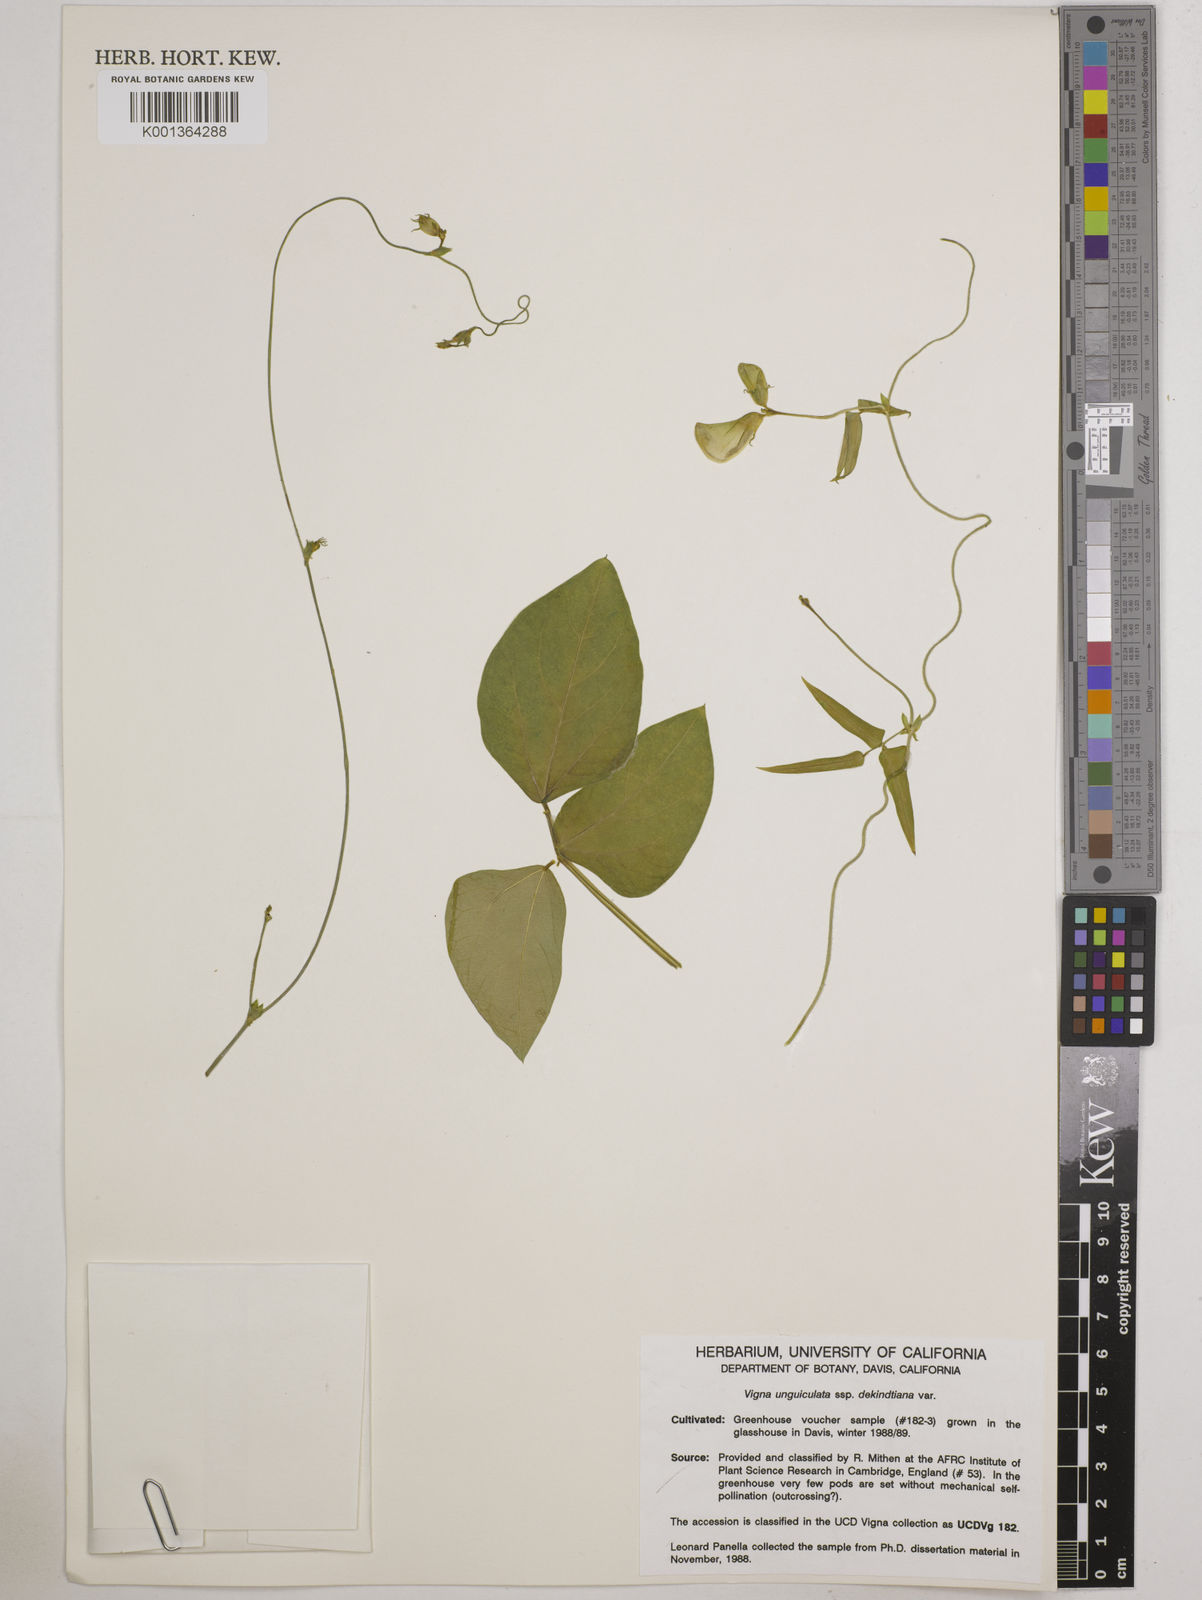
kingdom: Plantae
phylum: Tracheophyta
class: Magnoliopsida
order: Fabales
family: Fabaceae
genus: Vigna
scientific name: Vigna
